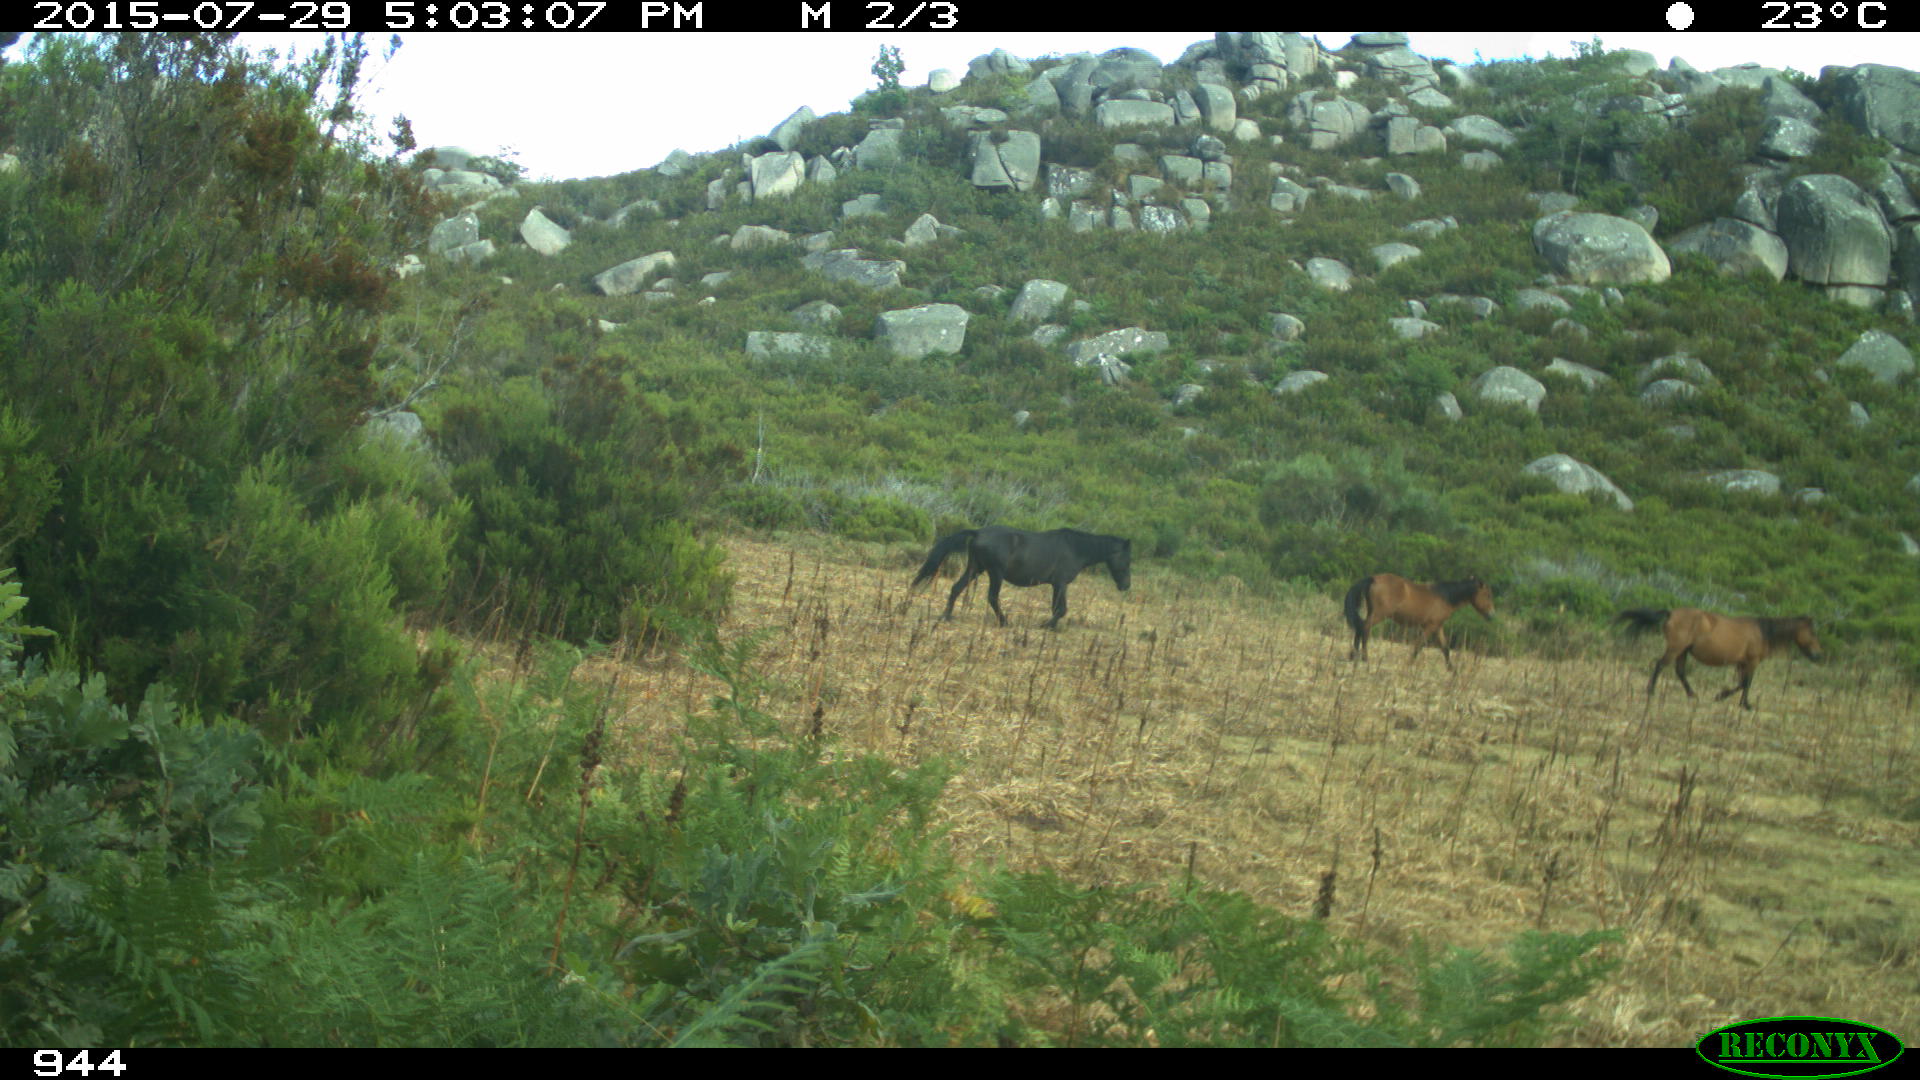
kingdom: Animalia
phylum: Chordata
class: Mammalia
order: Perissodactyla
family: Equidae
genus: Equus
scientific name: Equus caballus
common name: Horse
